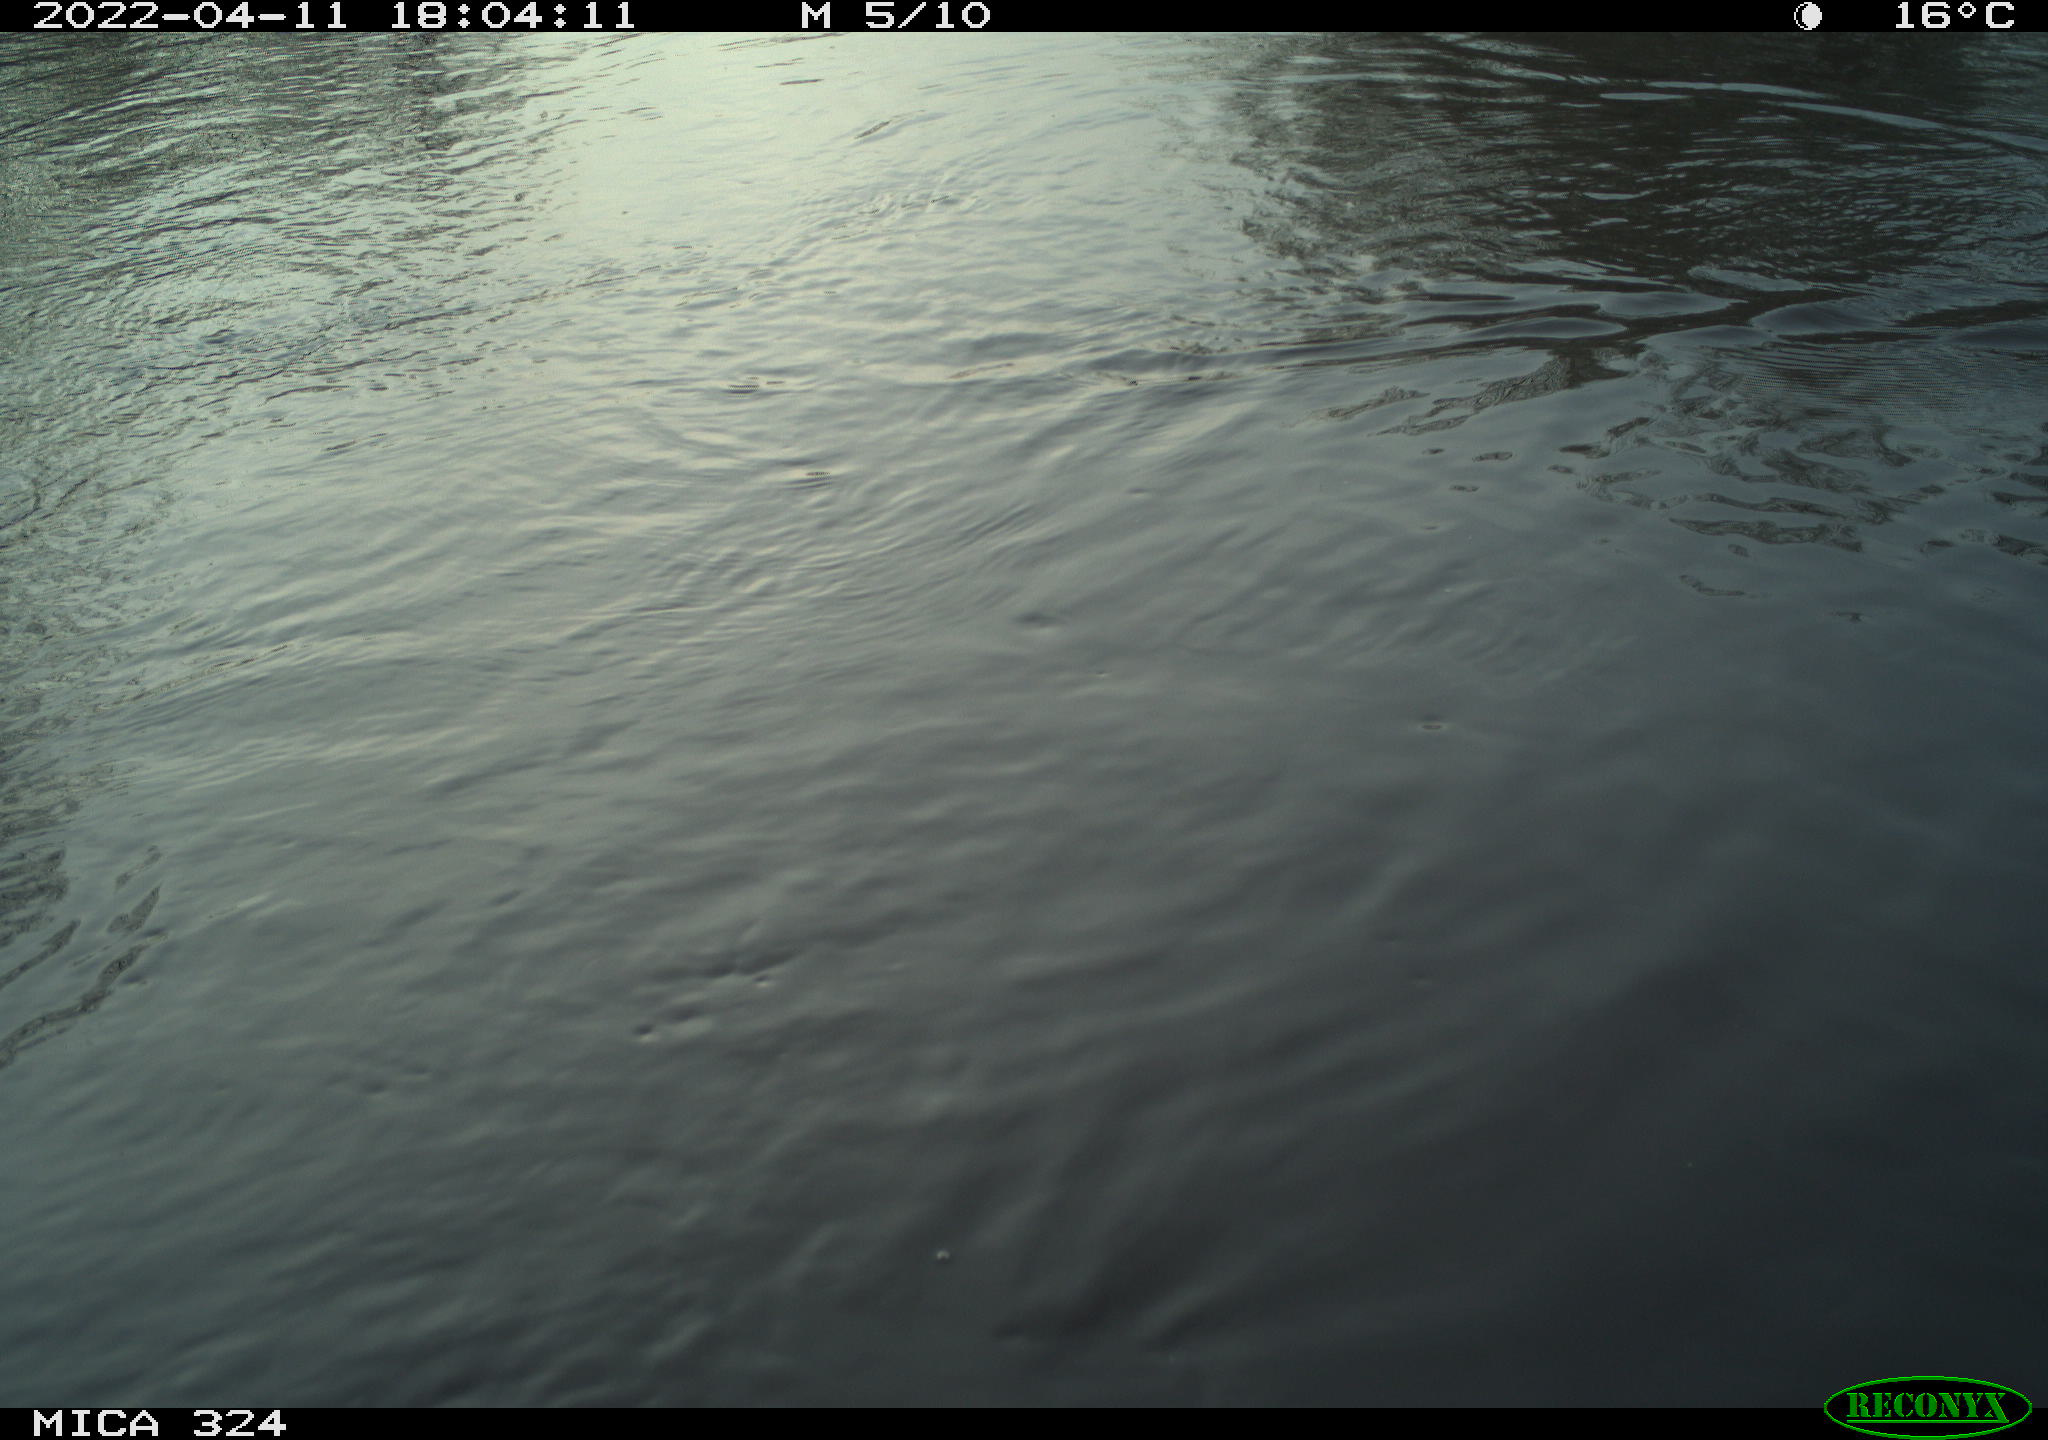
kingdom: Animalia
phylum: Chordata
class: Aves
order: Gruiformes
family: Rallidae
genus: Gallinula
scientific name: Gallinula chloropus
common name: Common moorhen
